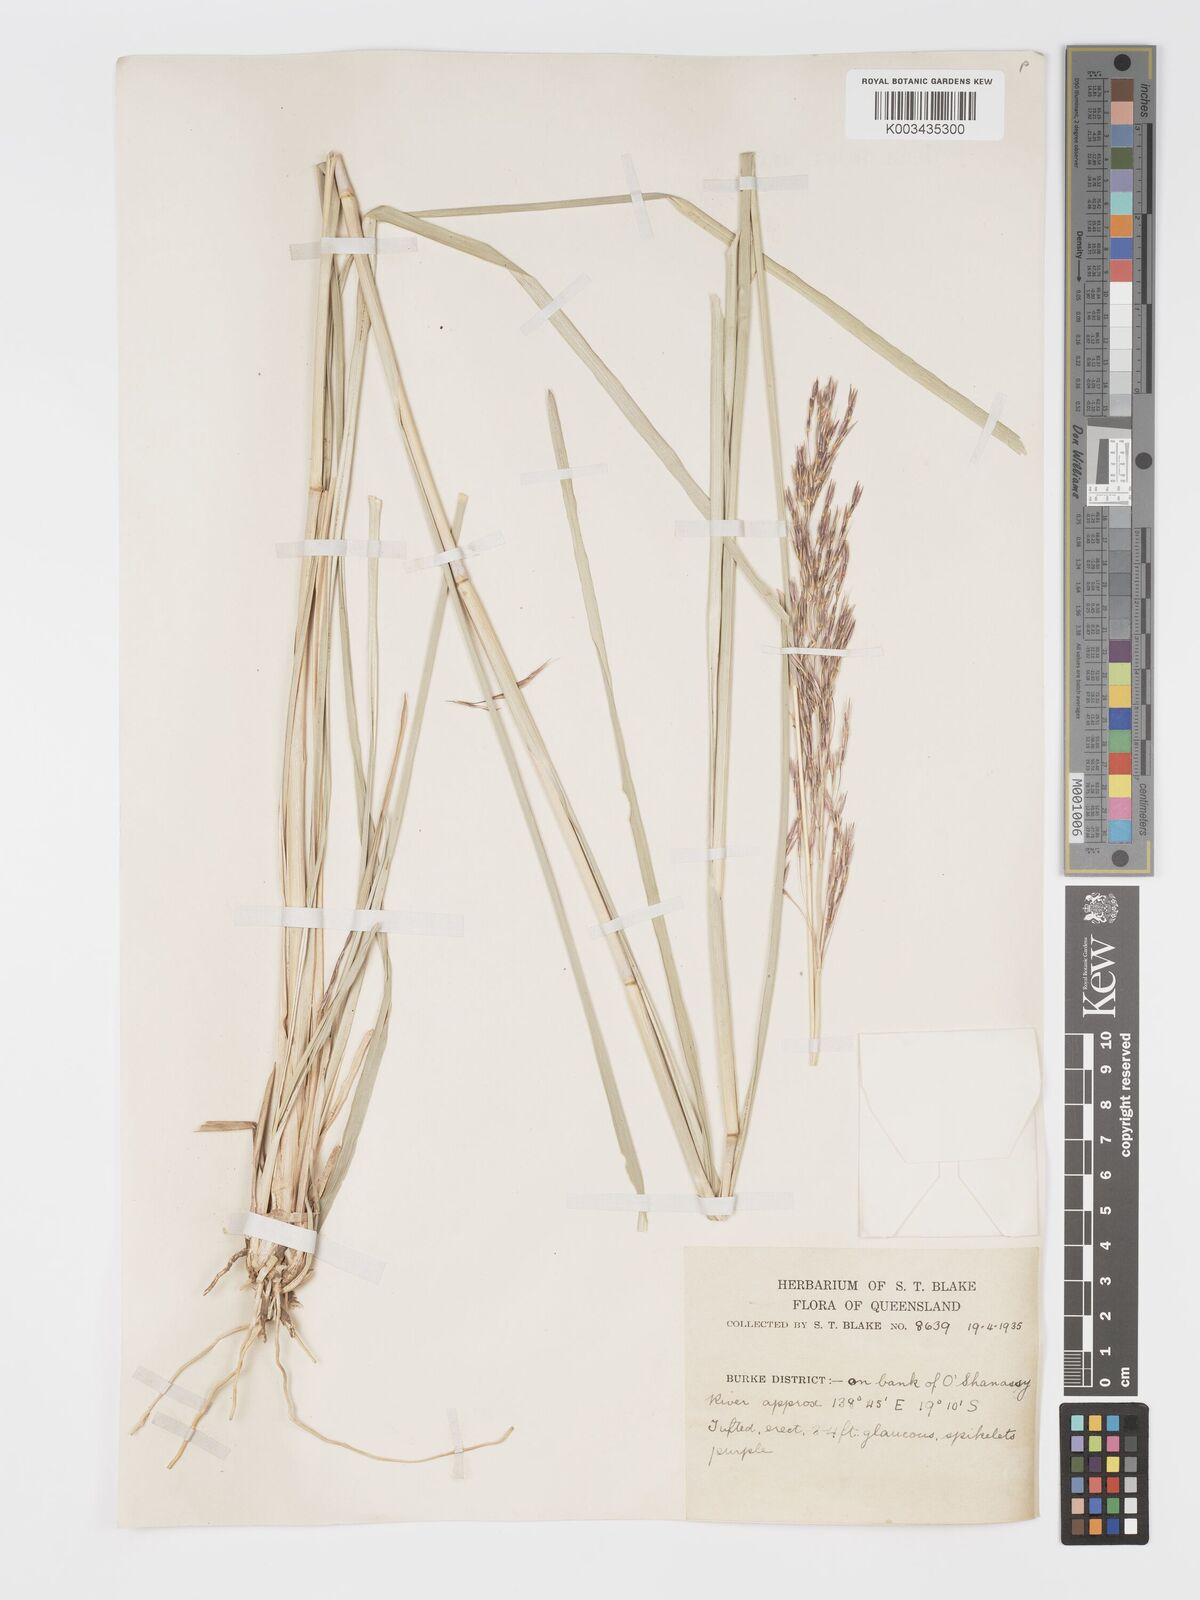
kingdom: Plantae
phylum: Tracheophyta
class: Liliopsida
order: Poales
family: Poaceae
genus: Chrysopogon
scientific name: Chrysopogon filipes
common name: Australian vetiver
